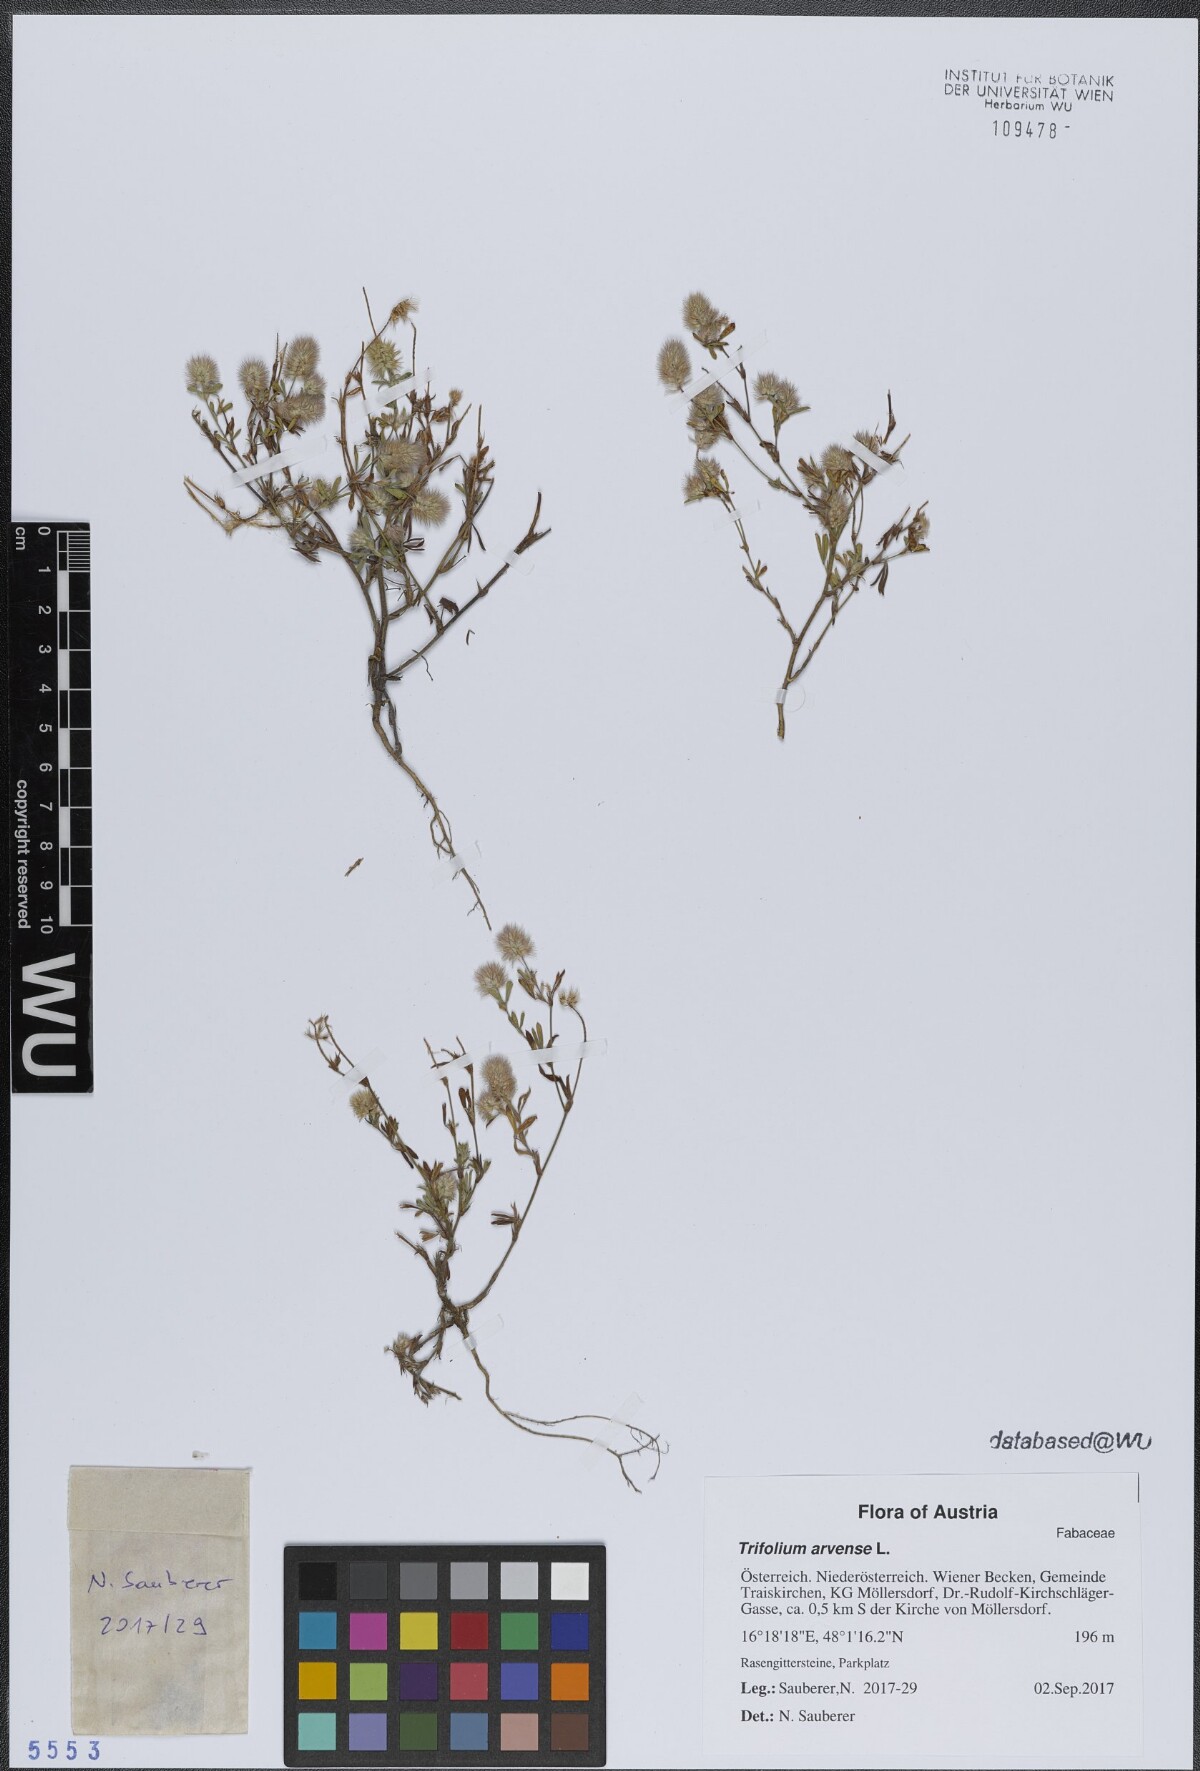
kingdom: Plantae
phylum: Tracheophyta
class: Magnoliopsida
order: Fabales
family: Fabaceae
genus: Trifolium
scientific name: Trifolium arvense
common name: Hare's-foot clover
